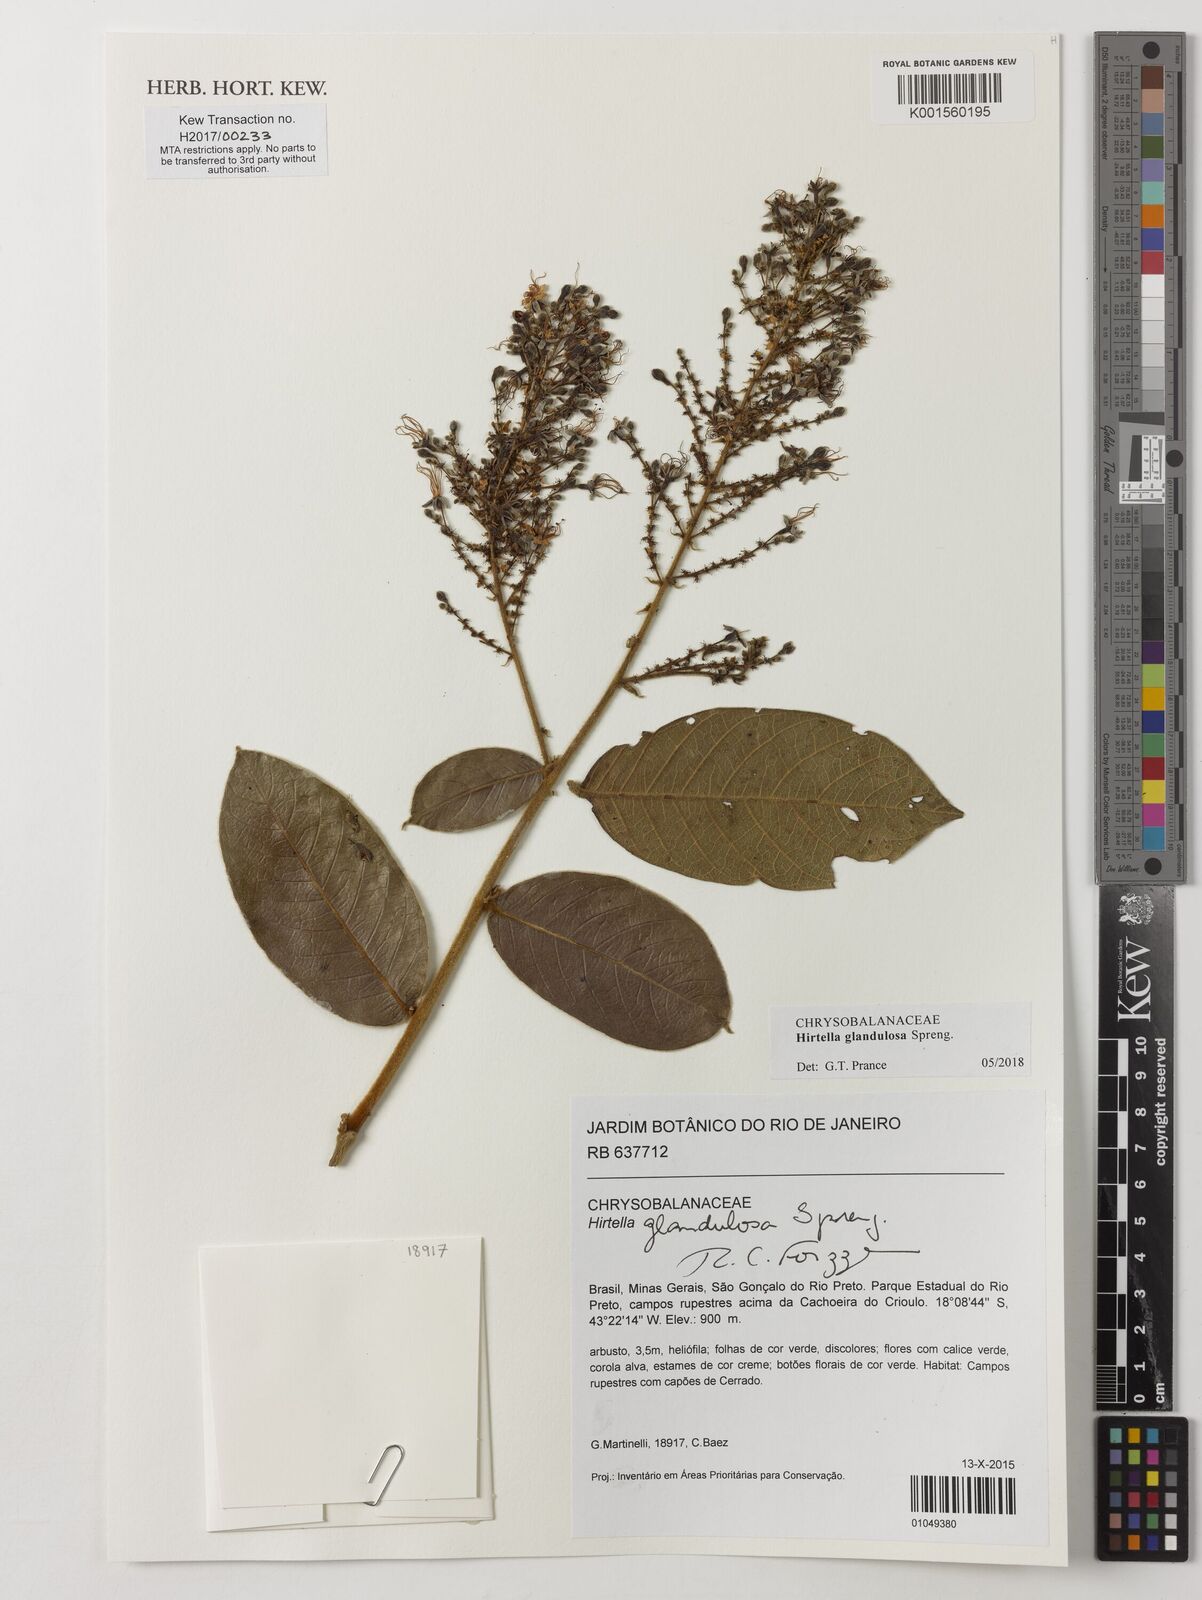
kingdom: Plantae
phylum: Tracheophyta
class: Magnoliopsida
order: Malpighiales
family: Chrysobalanaceae
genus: Hirtella
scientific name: Hirtella glandulosa
